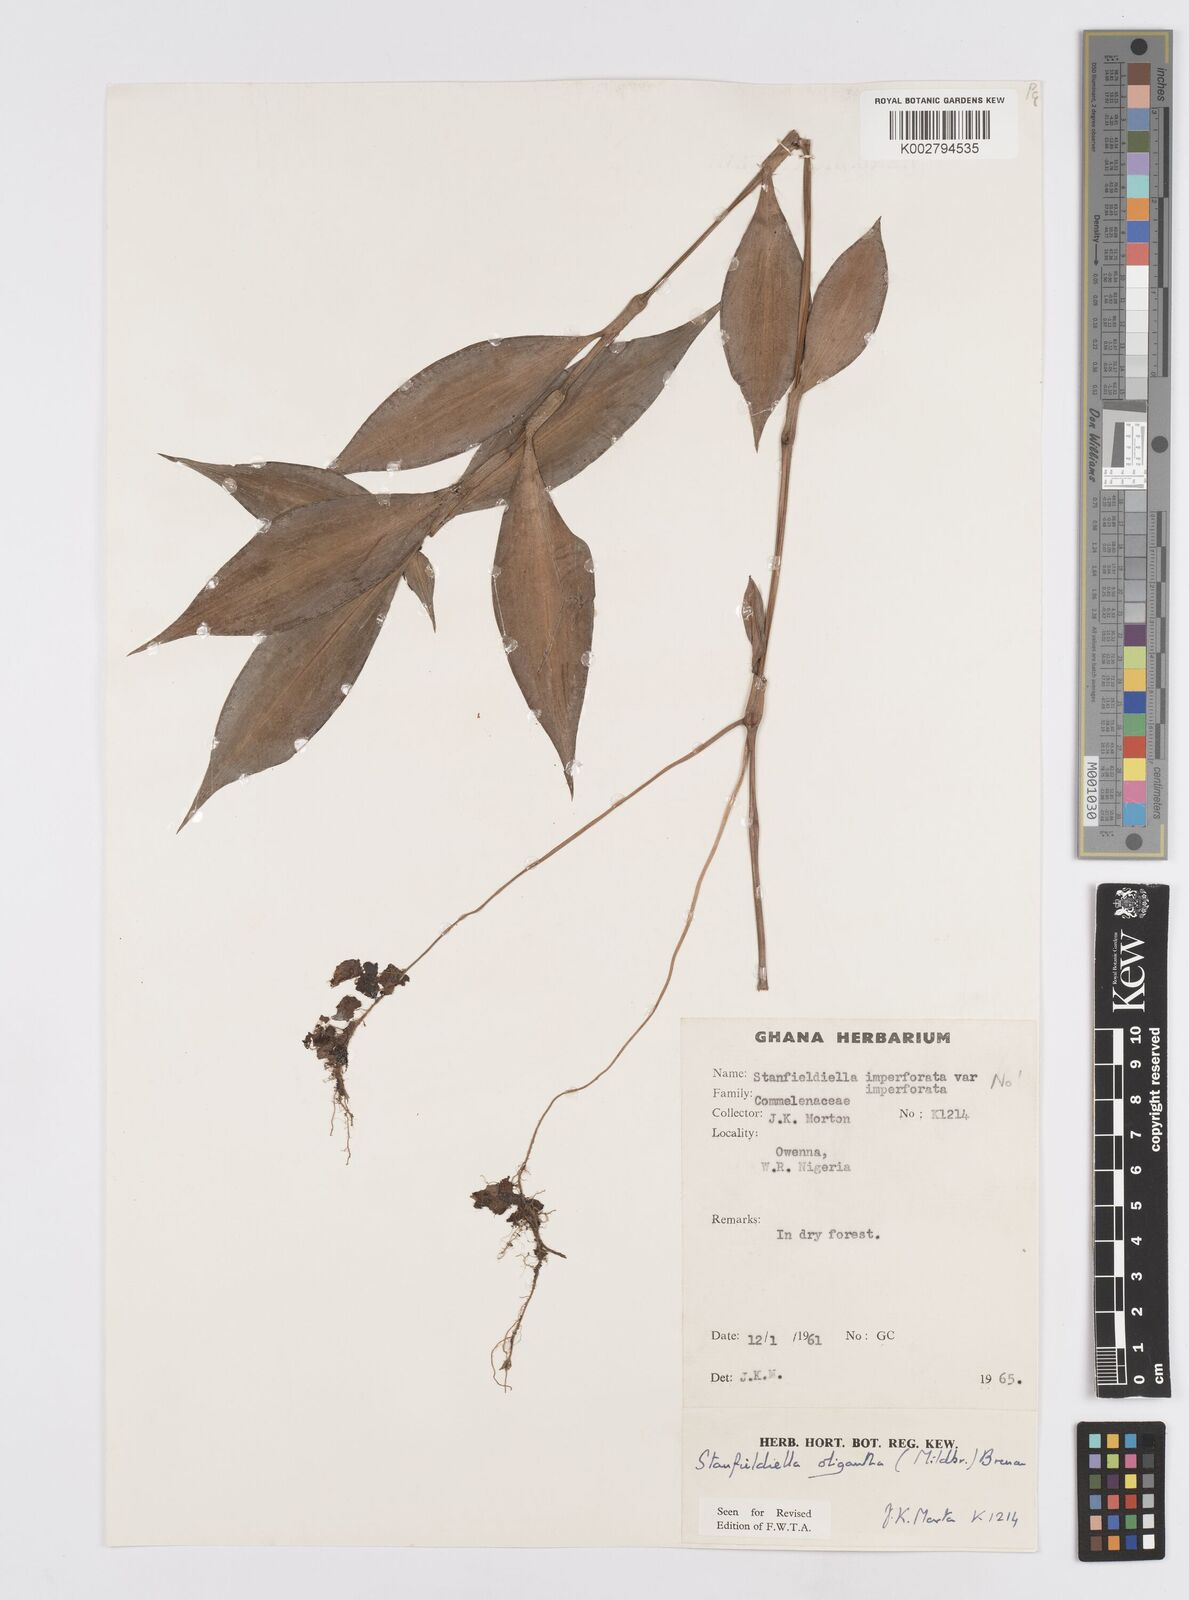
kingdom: Plantae
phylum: Tracheophyta
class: Liliopsida
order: Commelinales
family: Commelinaceae
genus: Stanfieldiella
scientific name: Stanfieldiella oligantha
